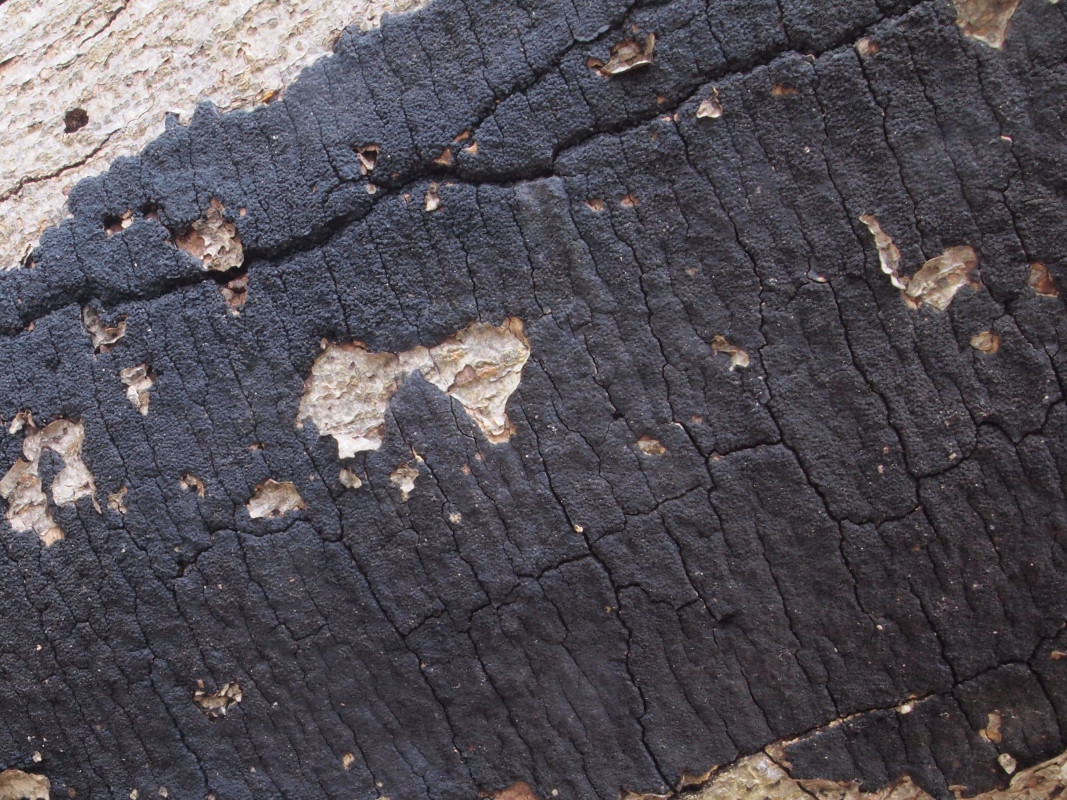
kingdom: Fungi
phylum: Ascomycota
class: Sordariomycetes
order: Xylariales
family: Diatrypaceae
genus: Eutypa
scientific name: Eutypa spinosa
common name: grov kulskorpe
